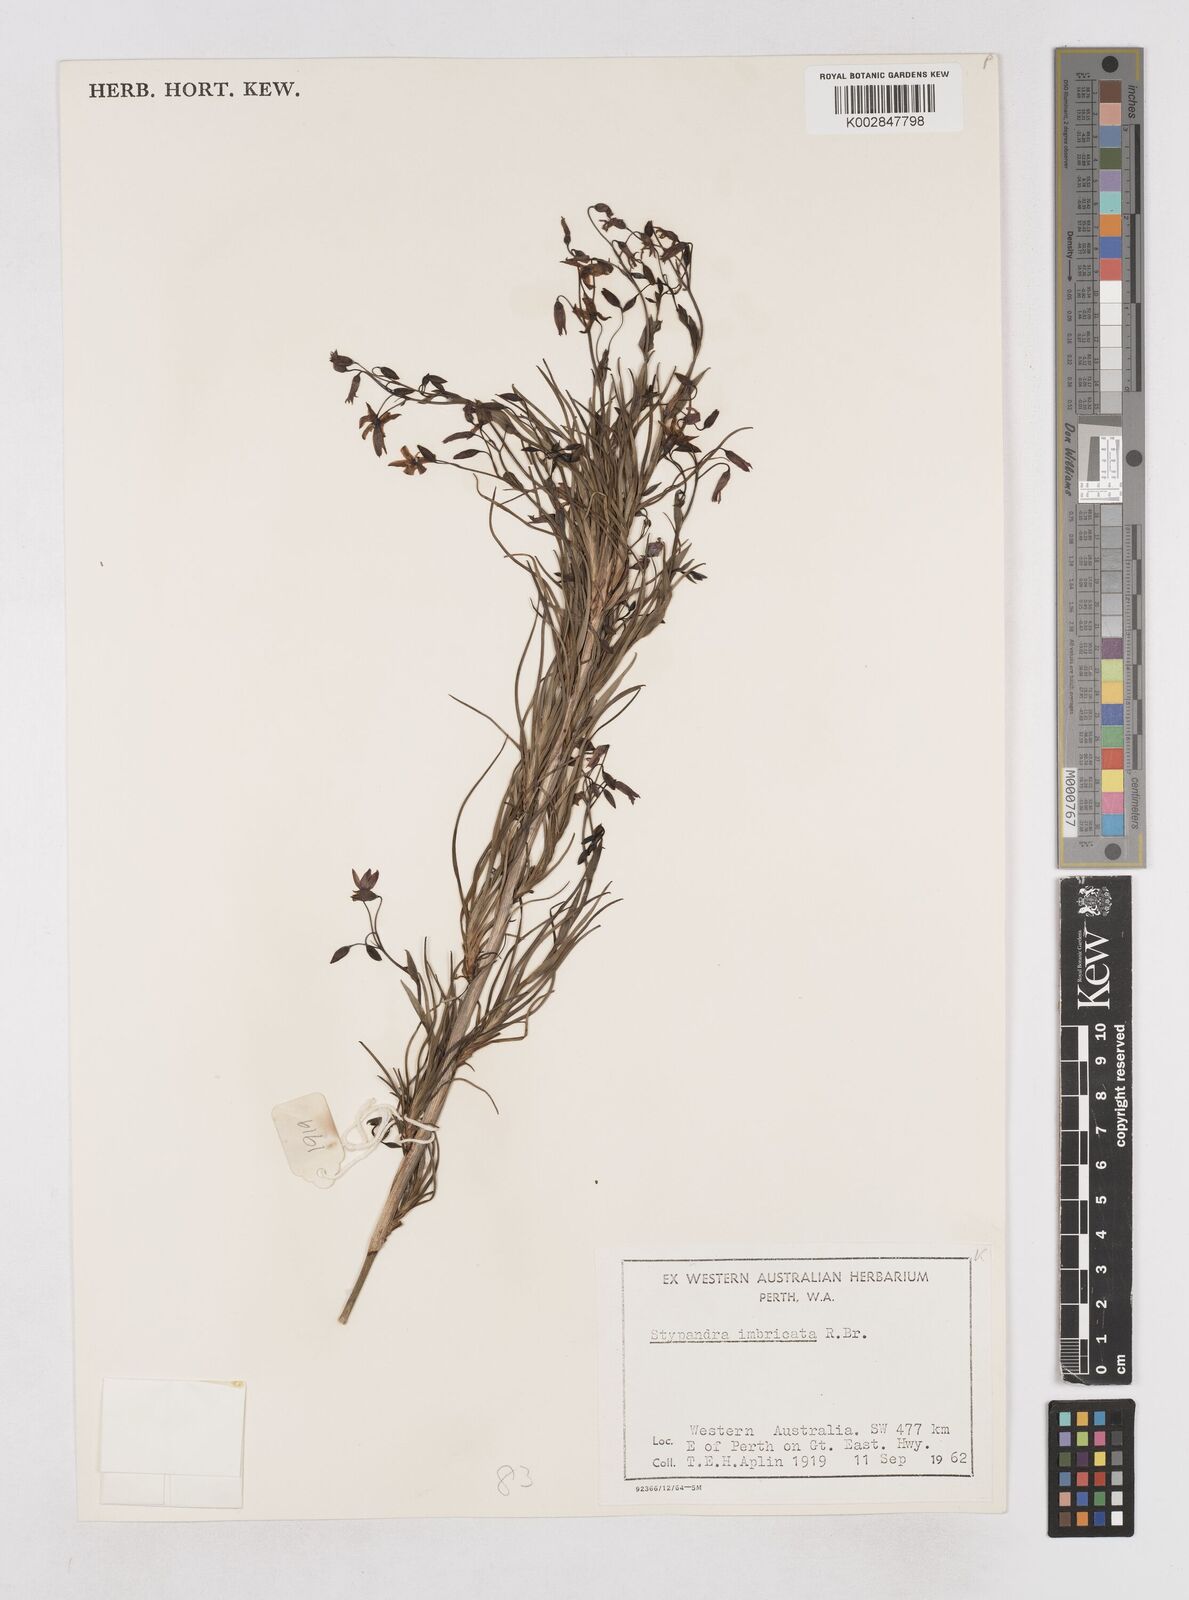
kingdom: Plantae
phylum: Tracheophyta
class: Liliopsida
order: Asparagales
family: Asphodelaceae
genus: Stypandra
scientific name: Stypandra glauca
